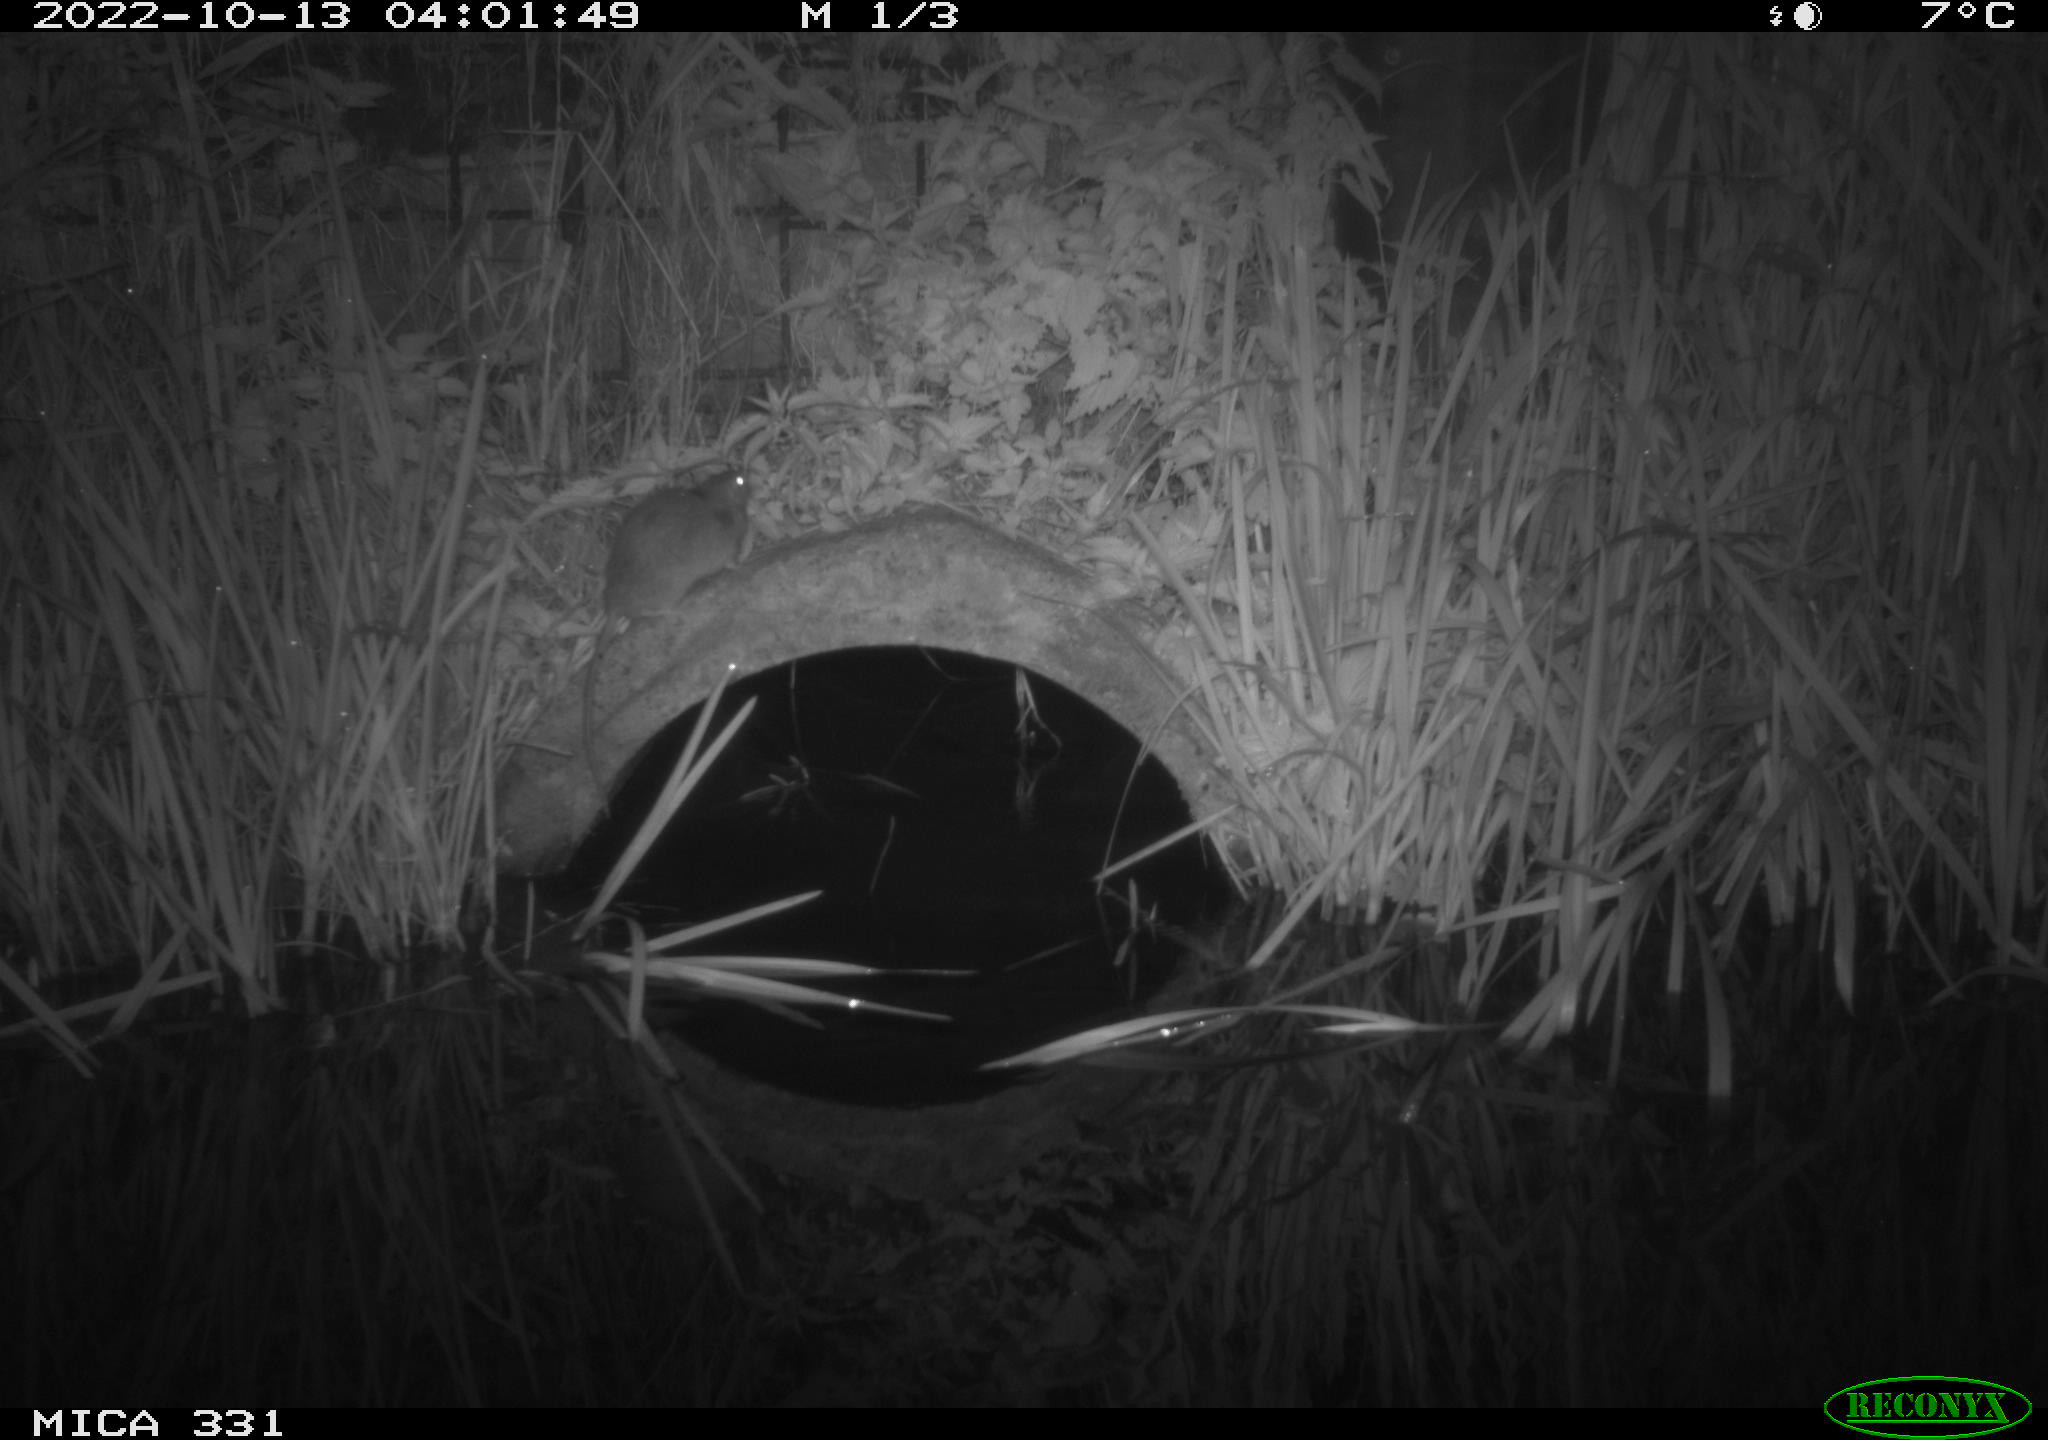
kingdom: Animalia
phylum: Chordata
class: Mammalia
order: Rodentia
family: Muridae
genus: Rattus
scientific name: Rattus norvegicus
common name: Brown rat
